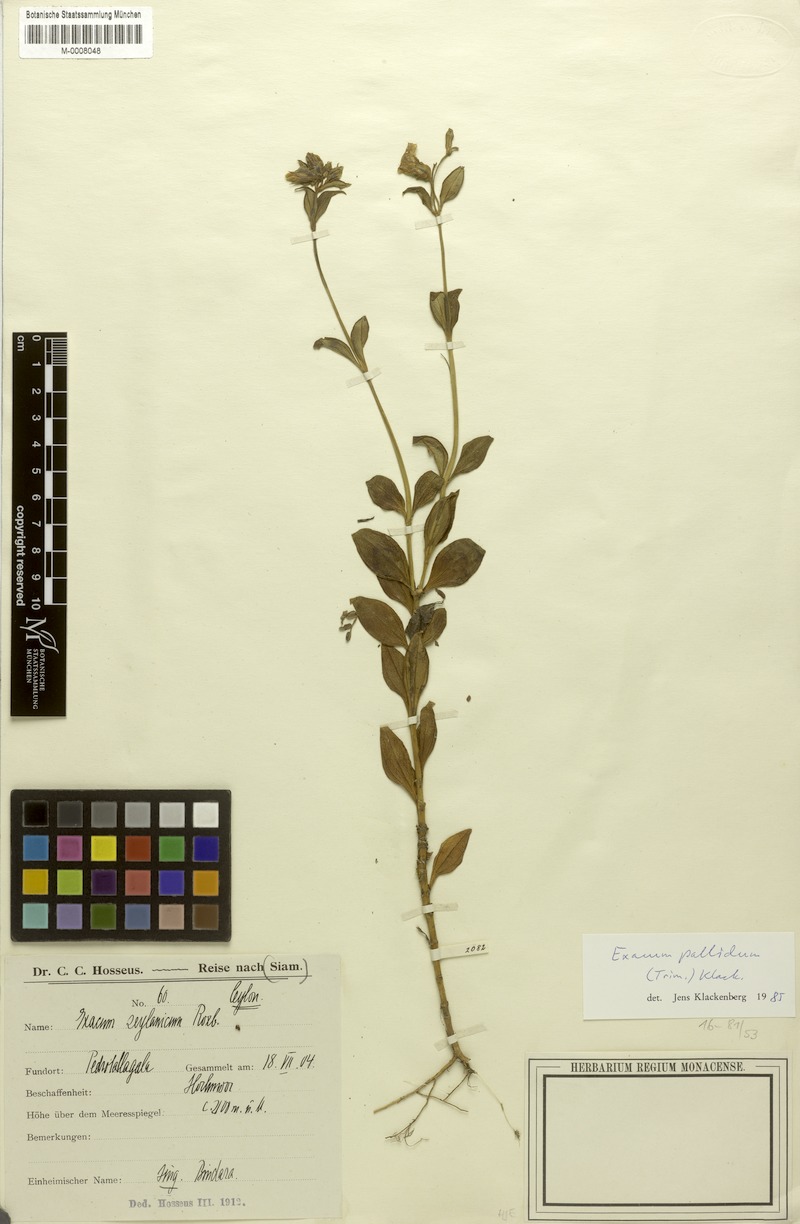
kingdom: Plantae
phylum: Tracheophyta
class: Magnoliopsida
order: Gentianales
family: Gentianaceae
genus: Exacum
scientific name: Exacum pallidum
